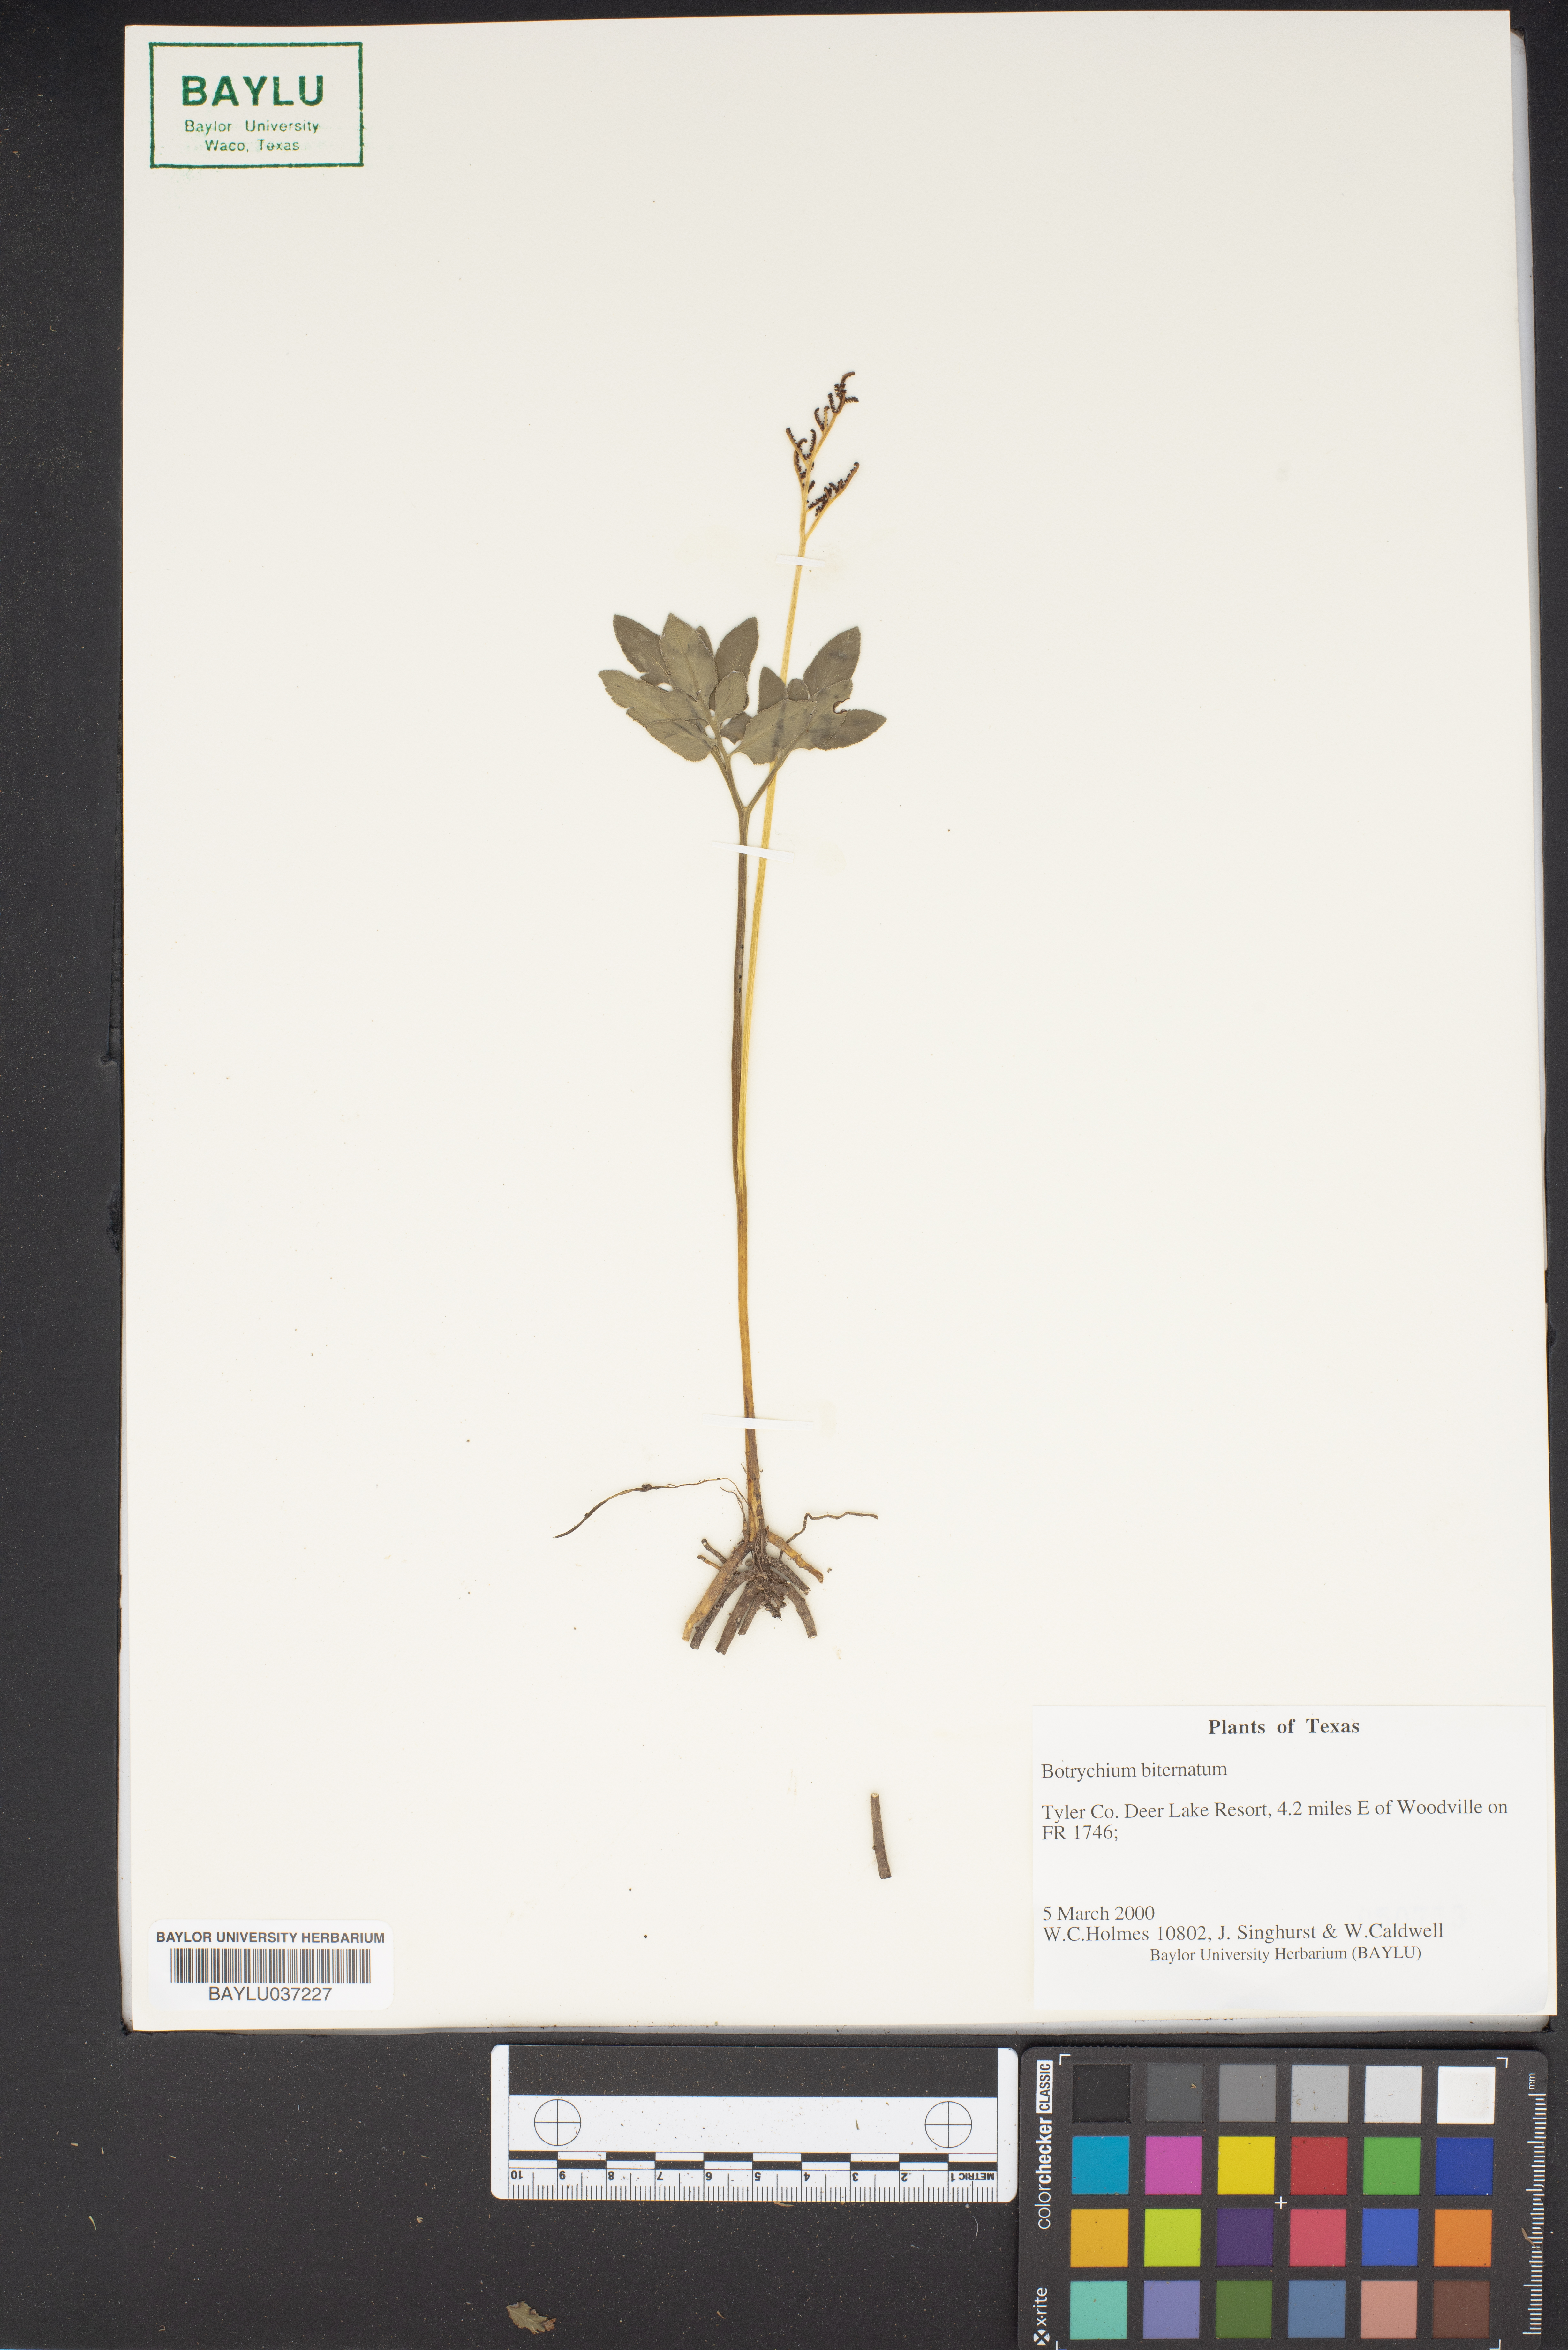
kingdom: Plantae
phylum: Tracheophyta
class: Polypodiopsida
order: Ophioglossales
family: Ophioglossaceae
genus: Sceptridium
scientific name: Sceptridium biternatum
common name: Sparse-lobed grapefern
